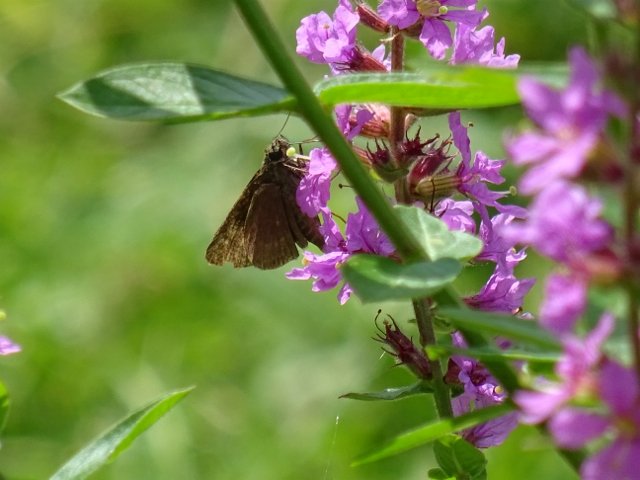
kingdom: Animalia
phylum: Arthropoda
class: Insecta
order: Lepidoptera
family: Hesperiidae
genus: Euphyes
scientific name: Euphyes vestris
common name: Dun Skipper
